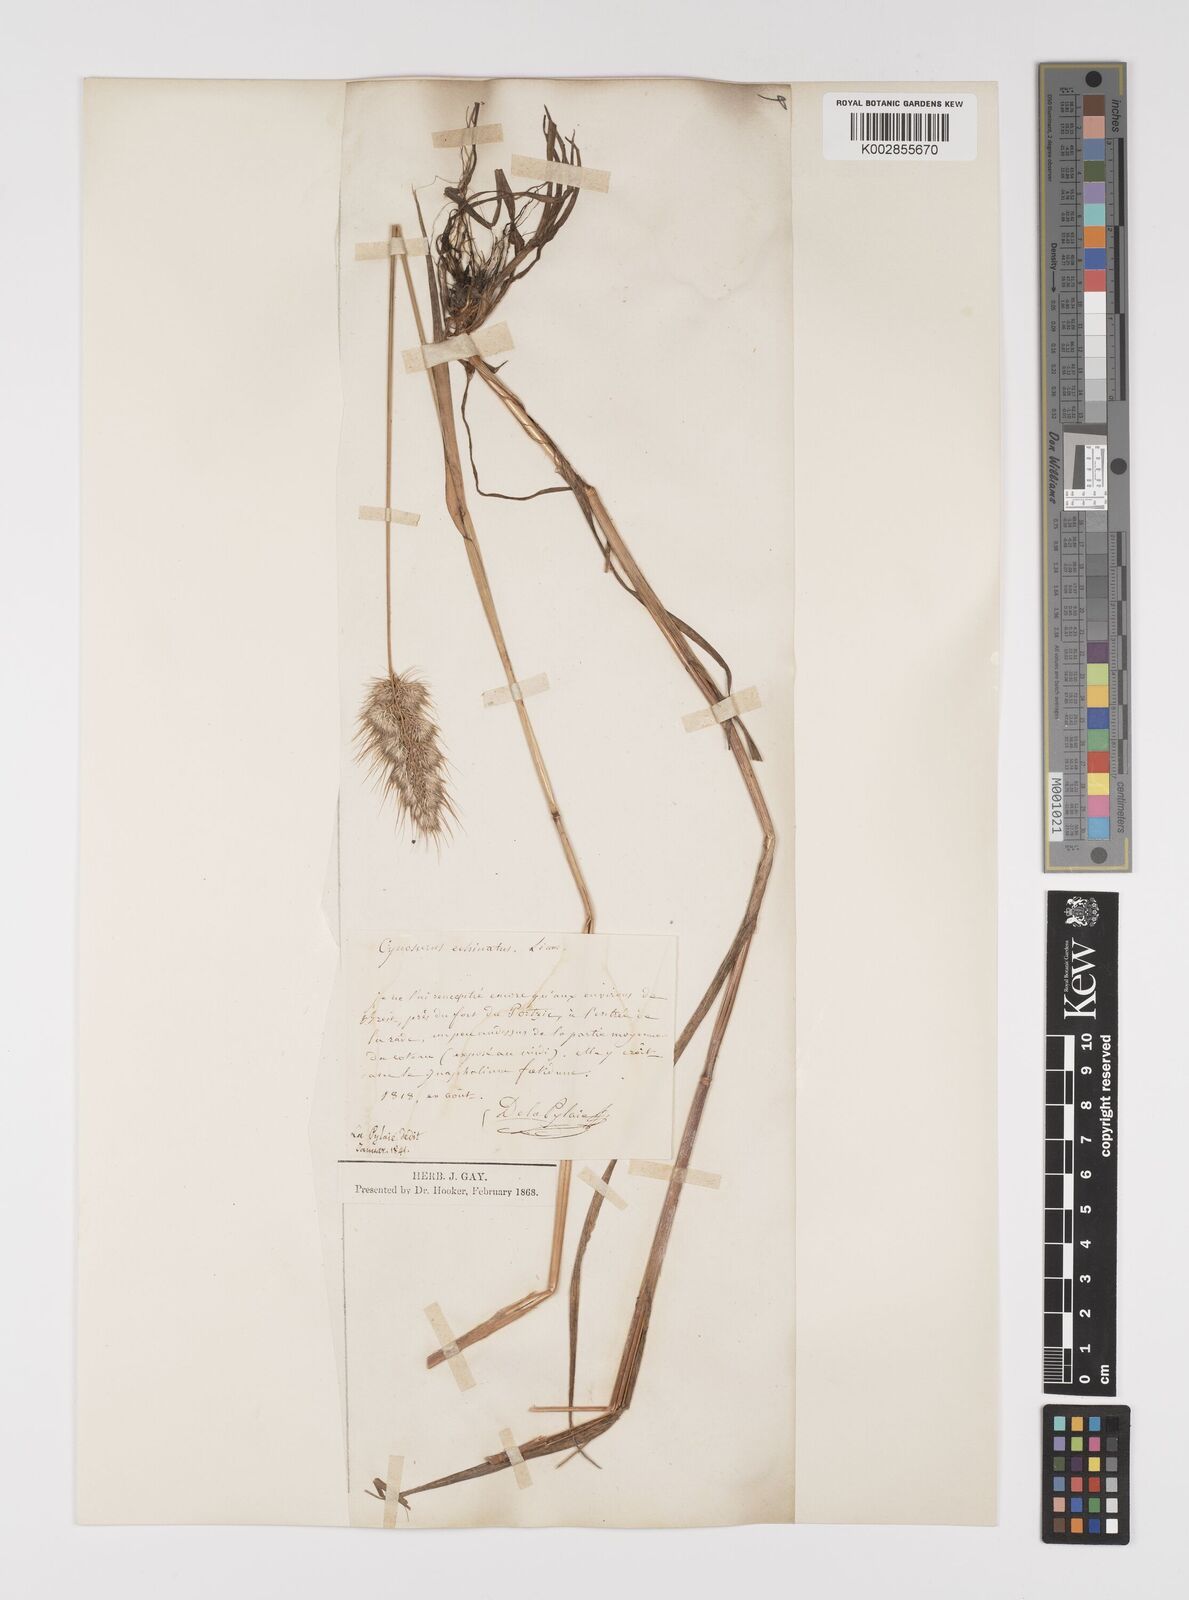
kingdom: Plantae
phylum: Tracheophyta
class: Liliopsida
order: Poales
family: Poaceae
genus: Cynosurus
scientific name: Cynosurus echinatus
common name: Rough dog's-tail
